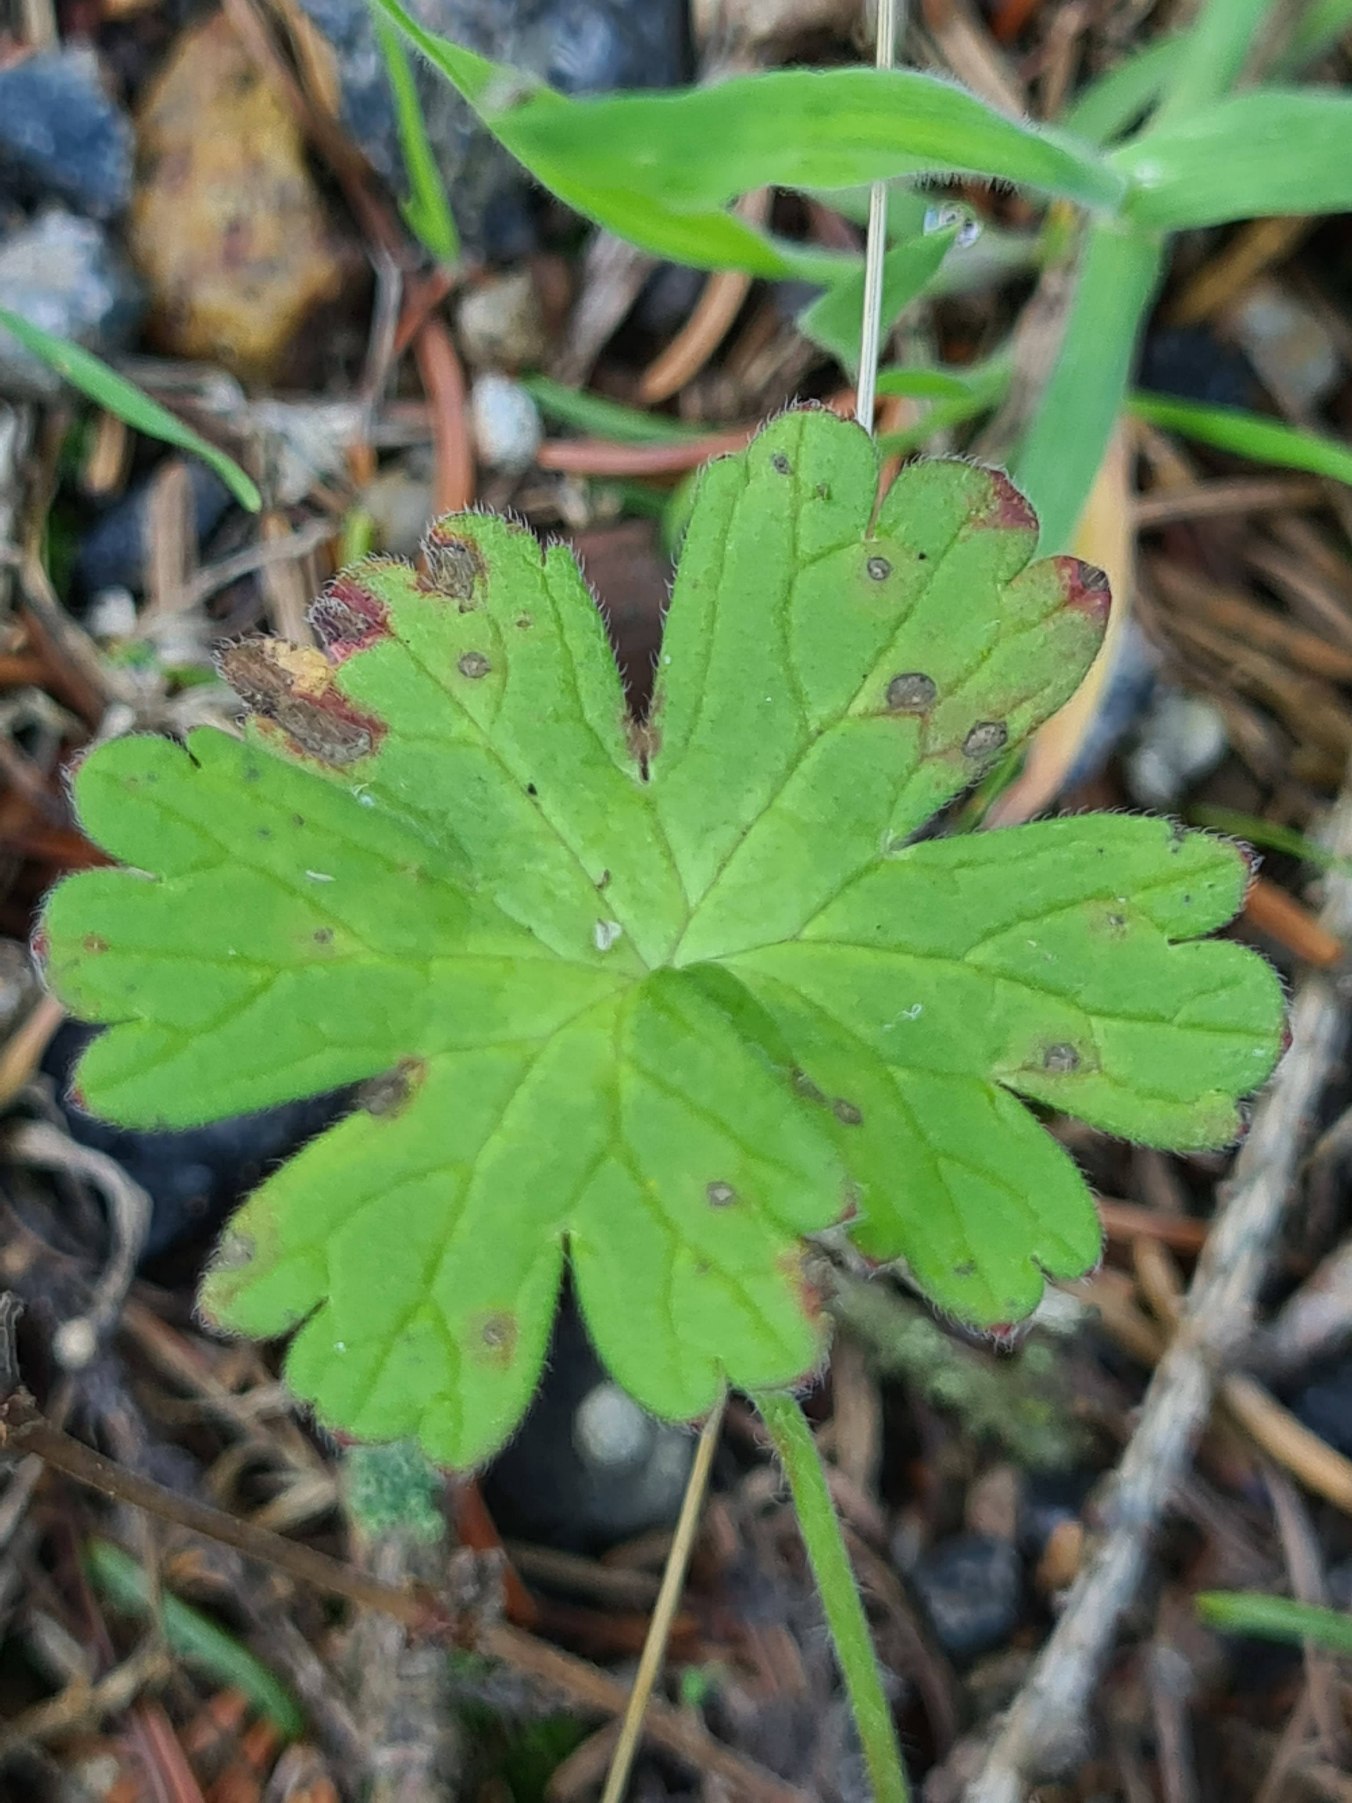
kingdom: Plantae
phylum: Tracheophyta
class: Magnoliopsida
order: Geraniales
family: Geraniaceae
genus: Geranium
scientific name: Geranium pyrenaicum
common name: Pyrenæisk storkenæb
